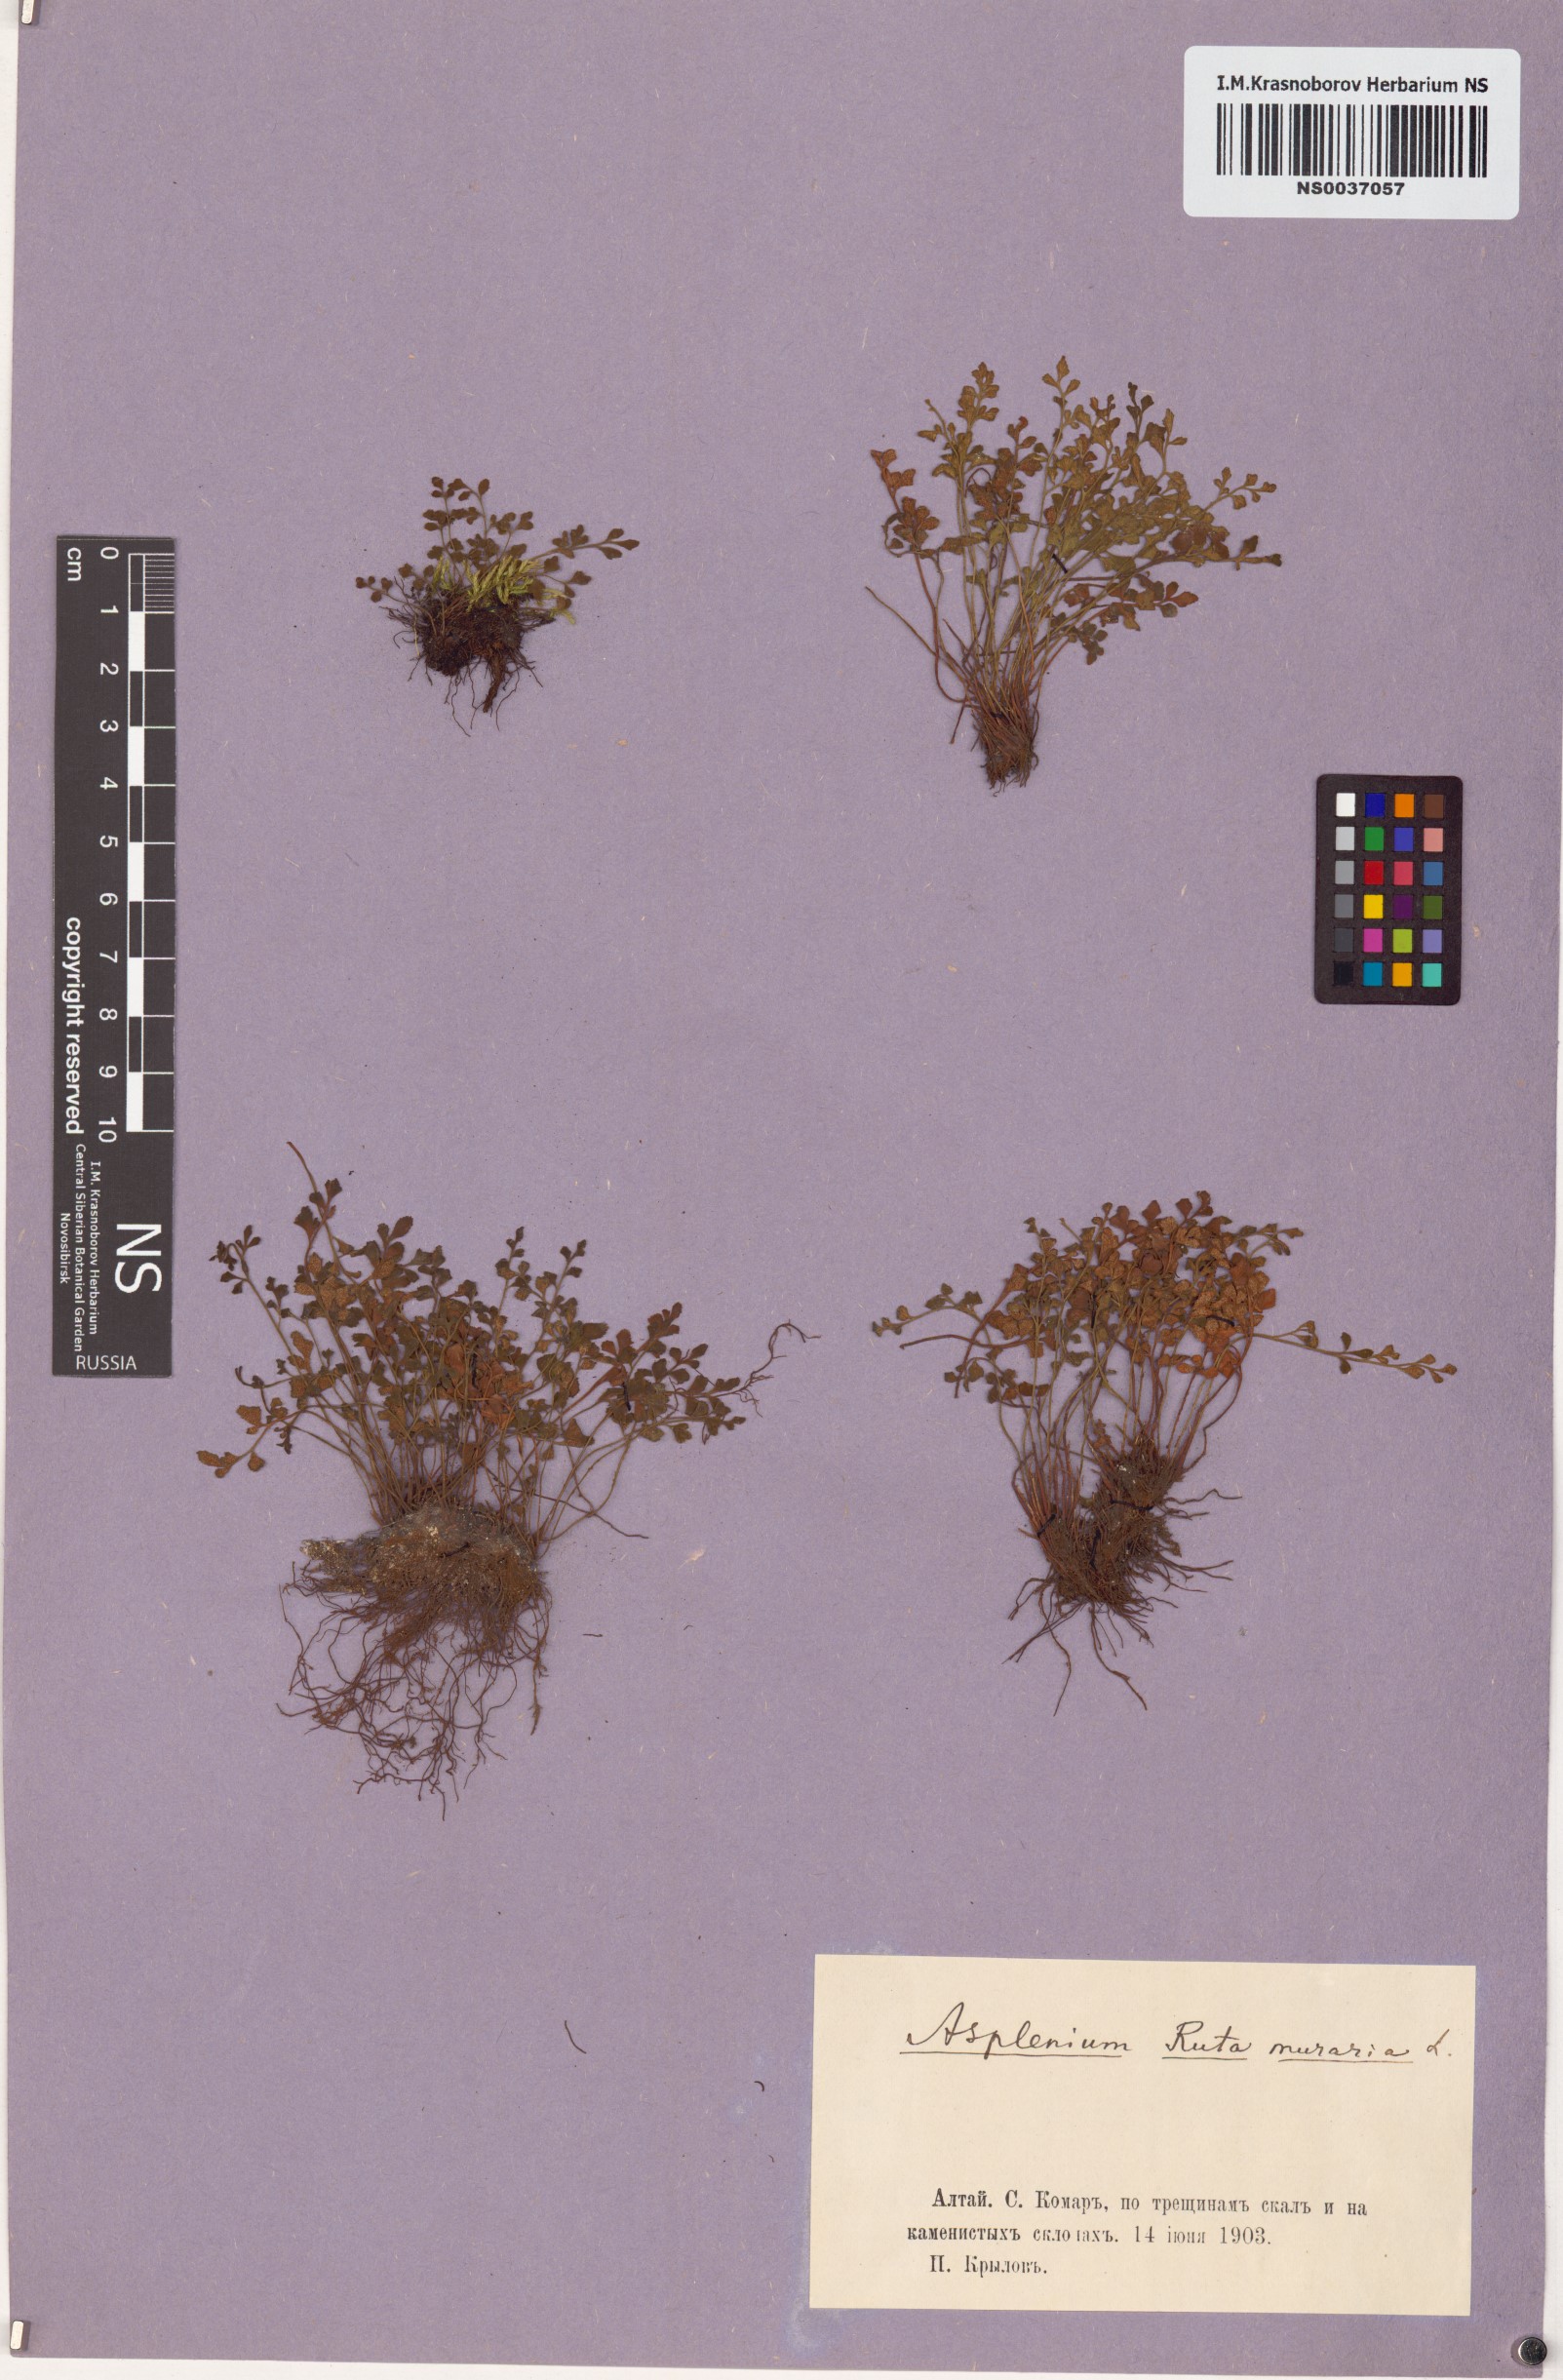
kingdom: Plantae
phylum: Tracheophyta
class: Polypodiopsida
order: Polypodiales
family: Aspleniaceae
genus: Asplenium
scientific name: Asplenium ruta-muraria
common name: Wall-rue
